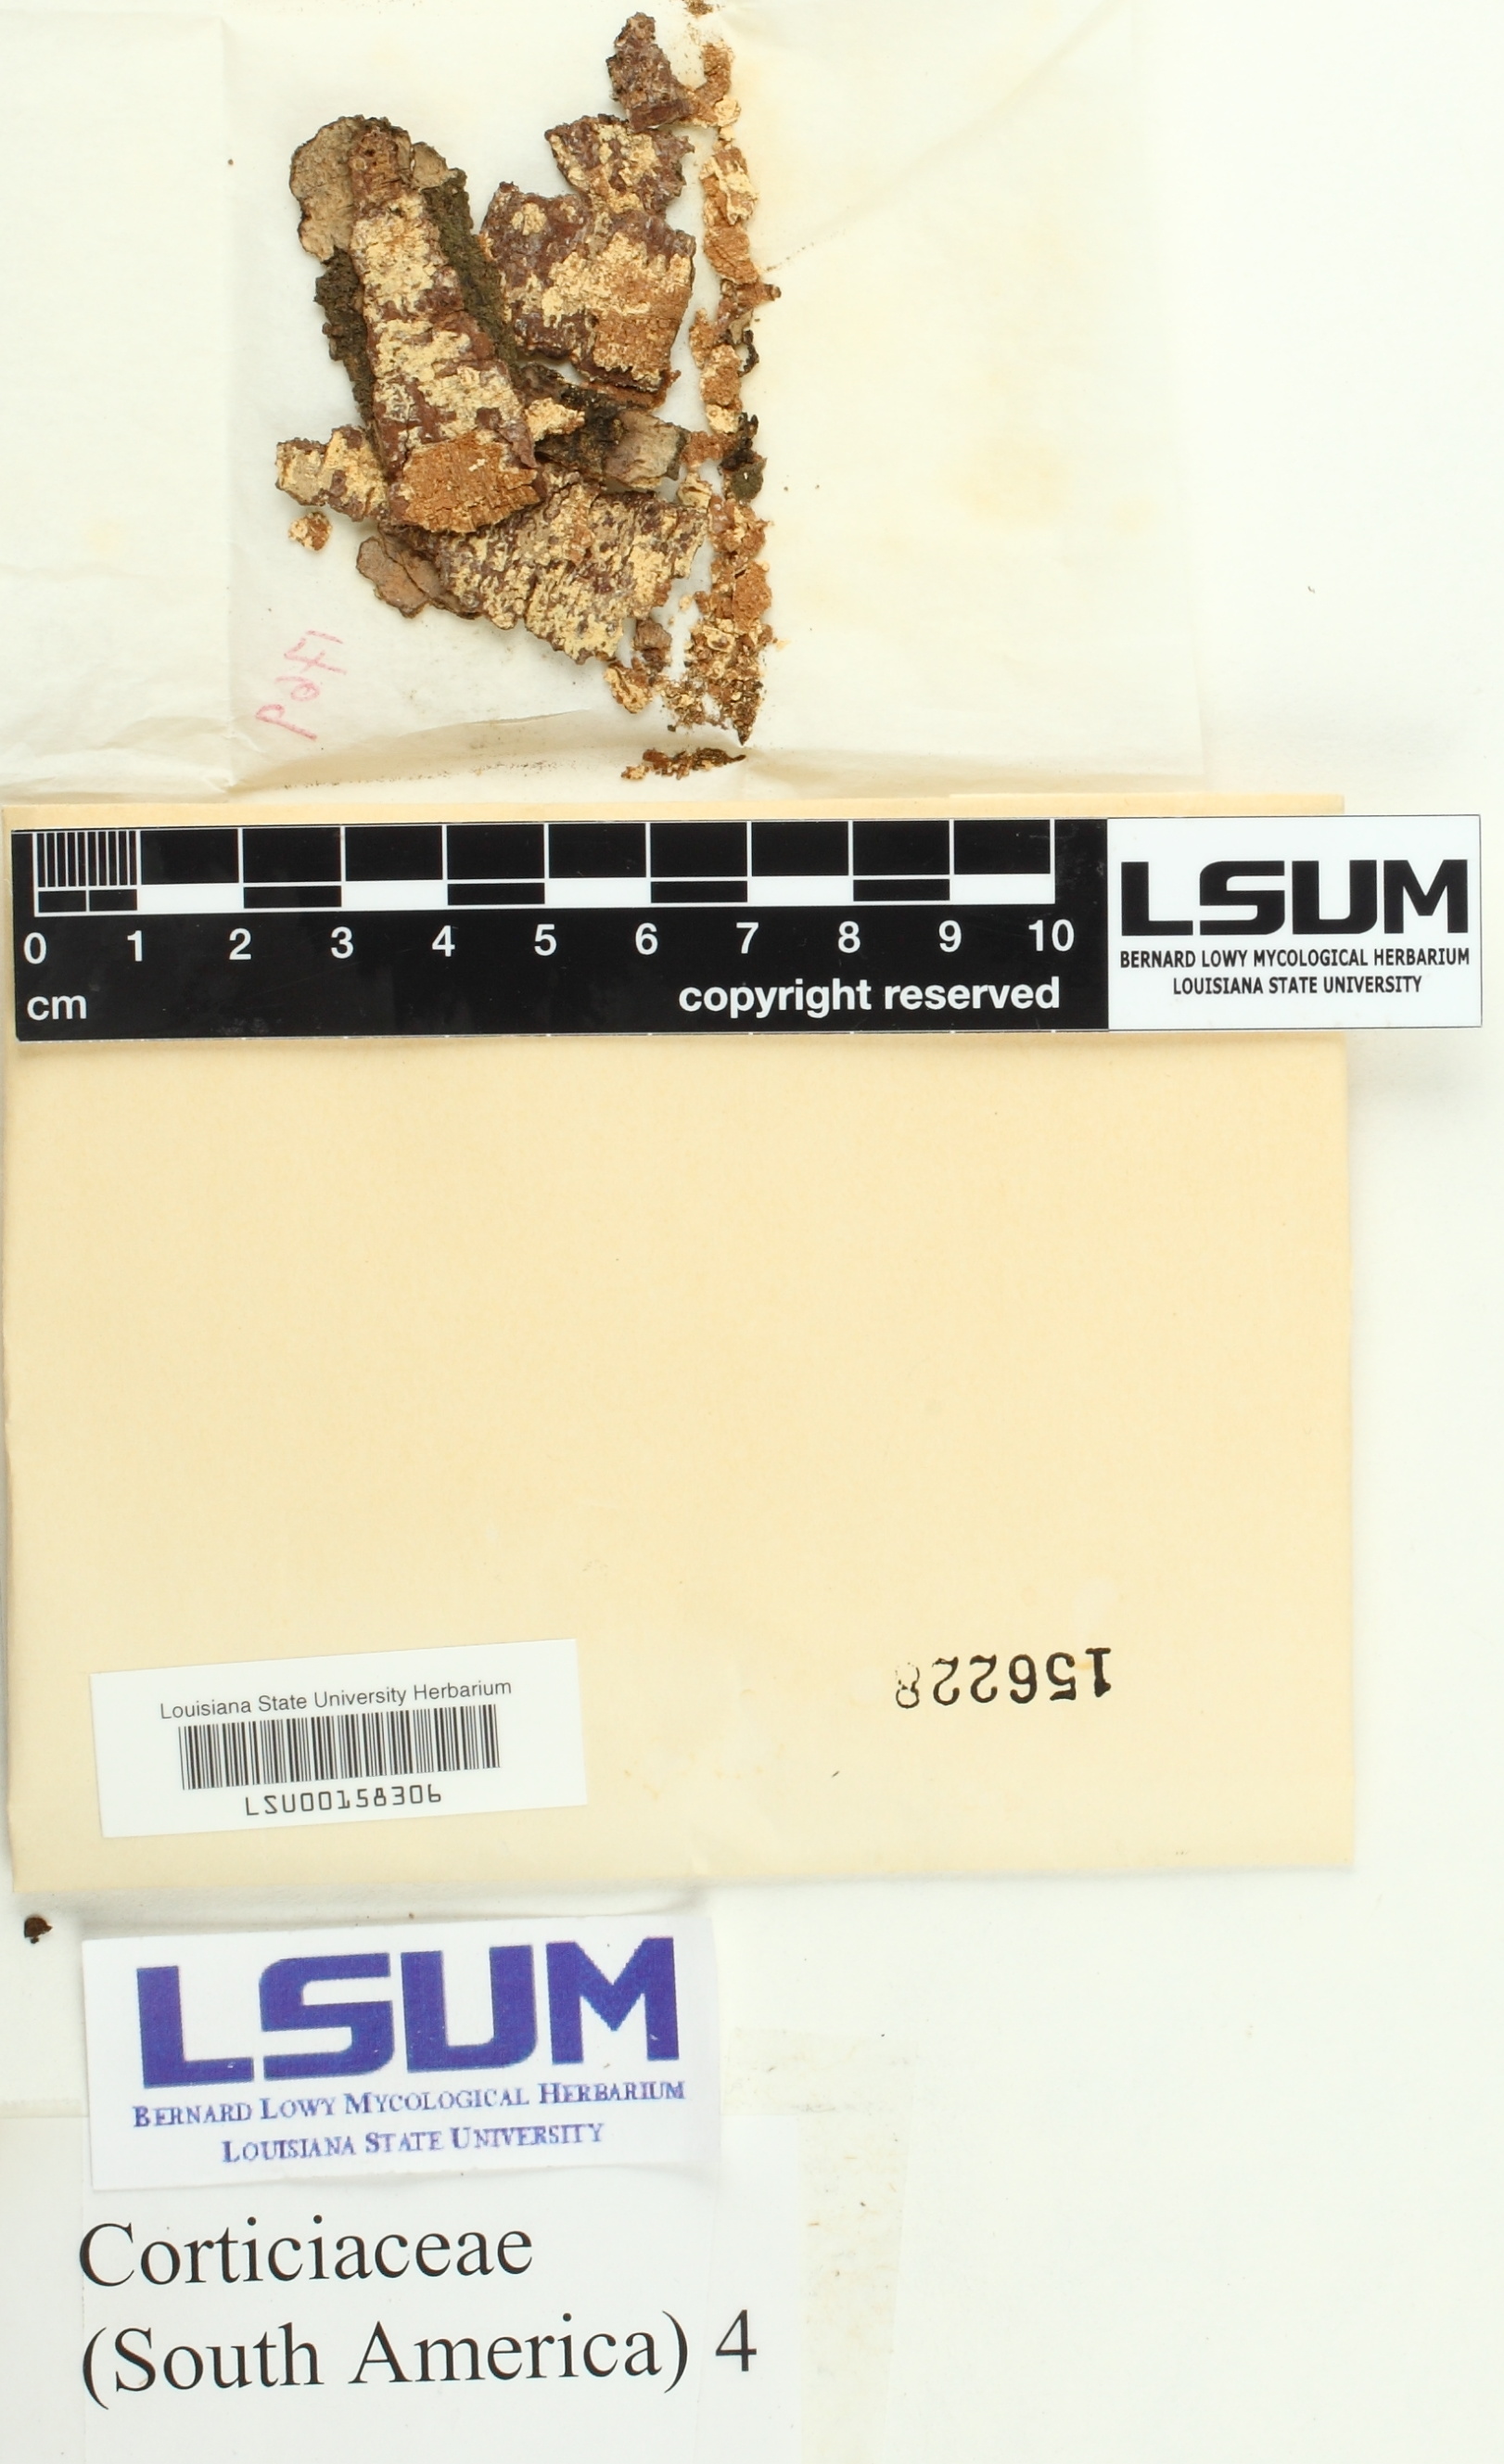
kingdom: Fungi
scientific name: Fungi
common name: Fungi
